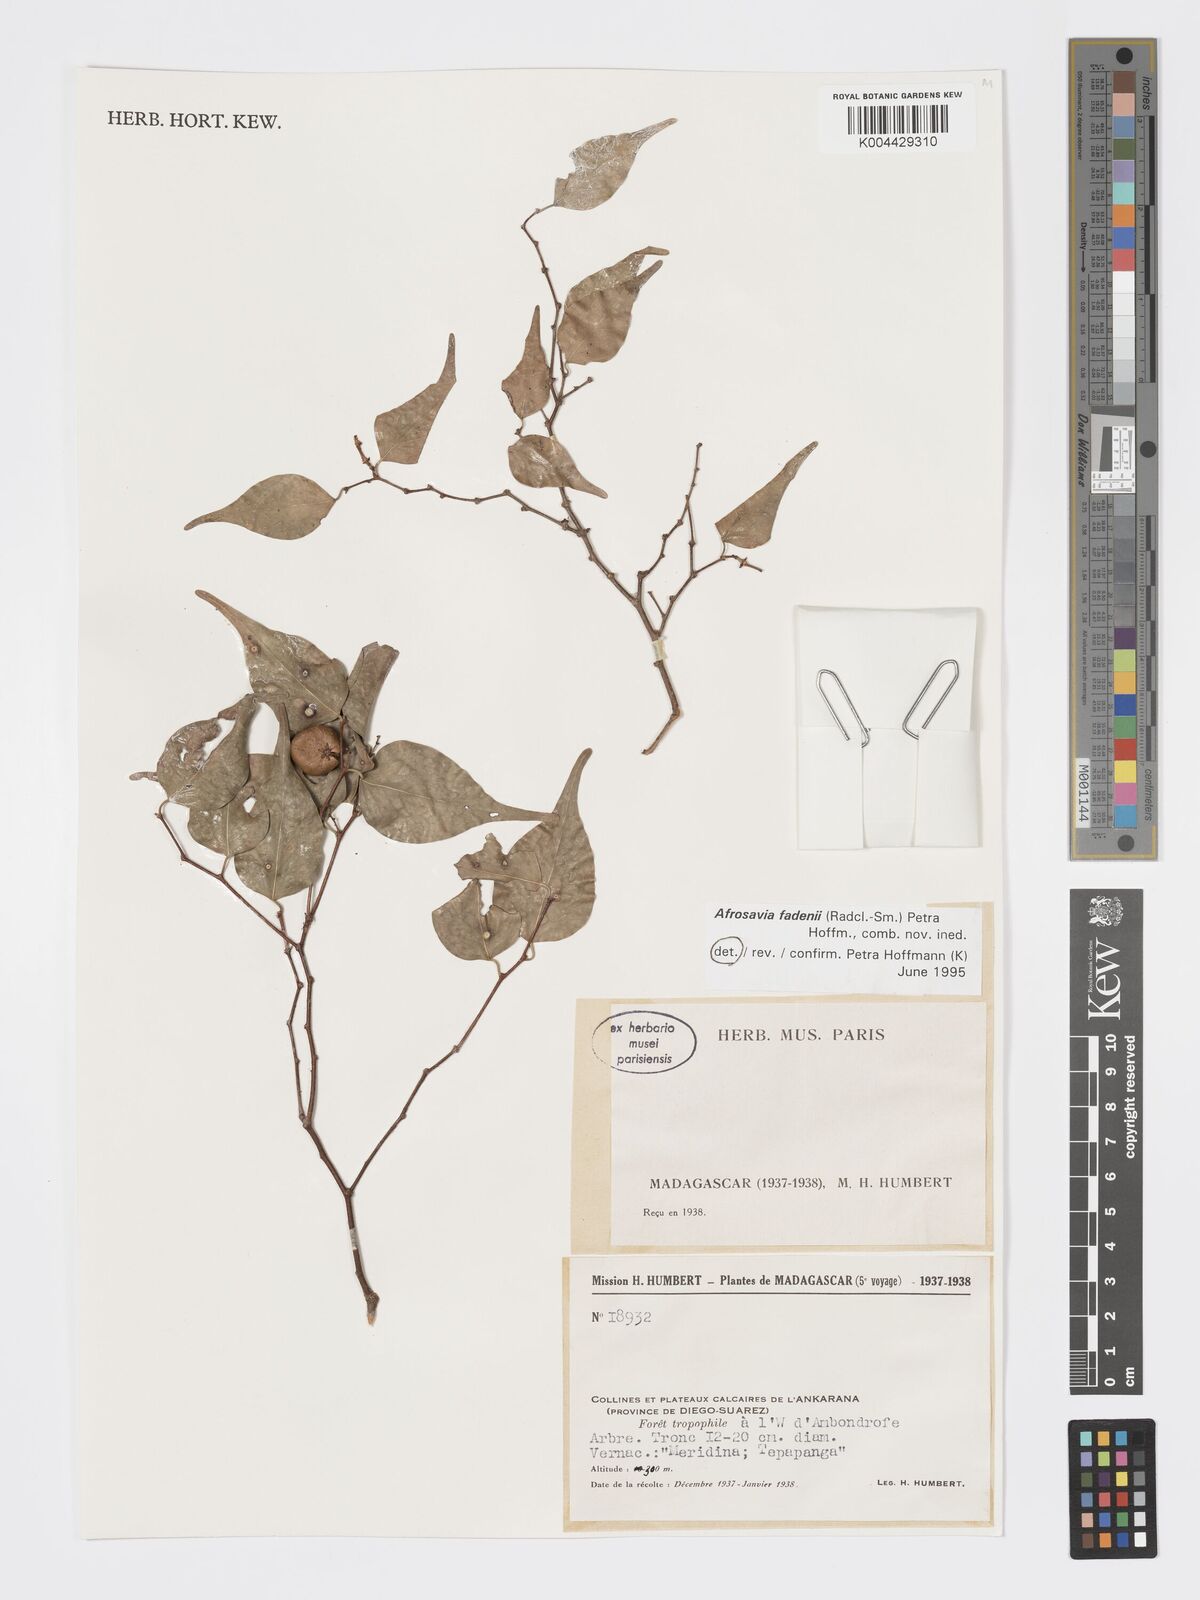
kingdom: Plantae
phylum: Tracheophyta
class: Magnoliopsida
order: Malpighiales
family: Phyllanthaceae
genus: Wielandia
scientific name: Wielandia fadenii
